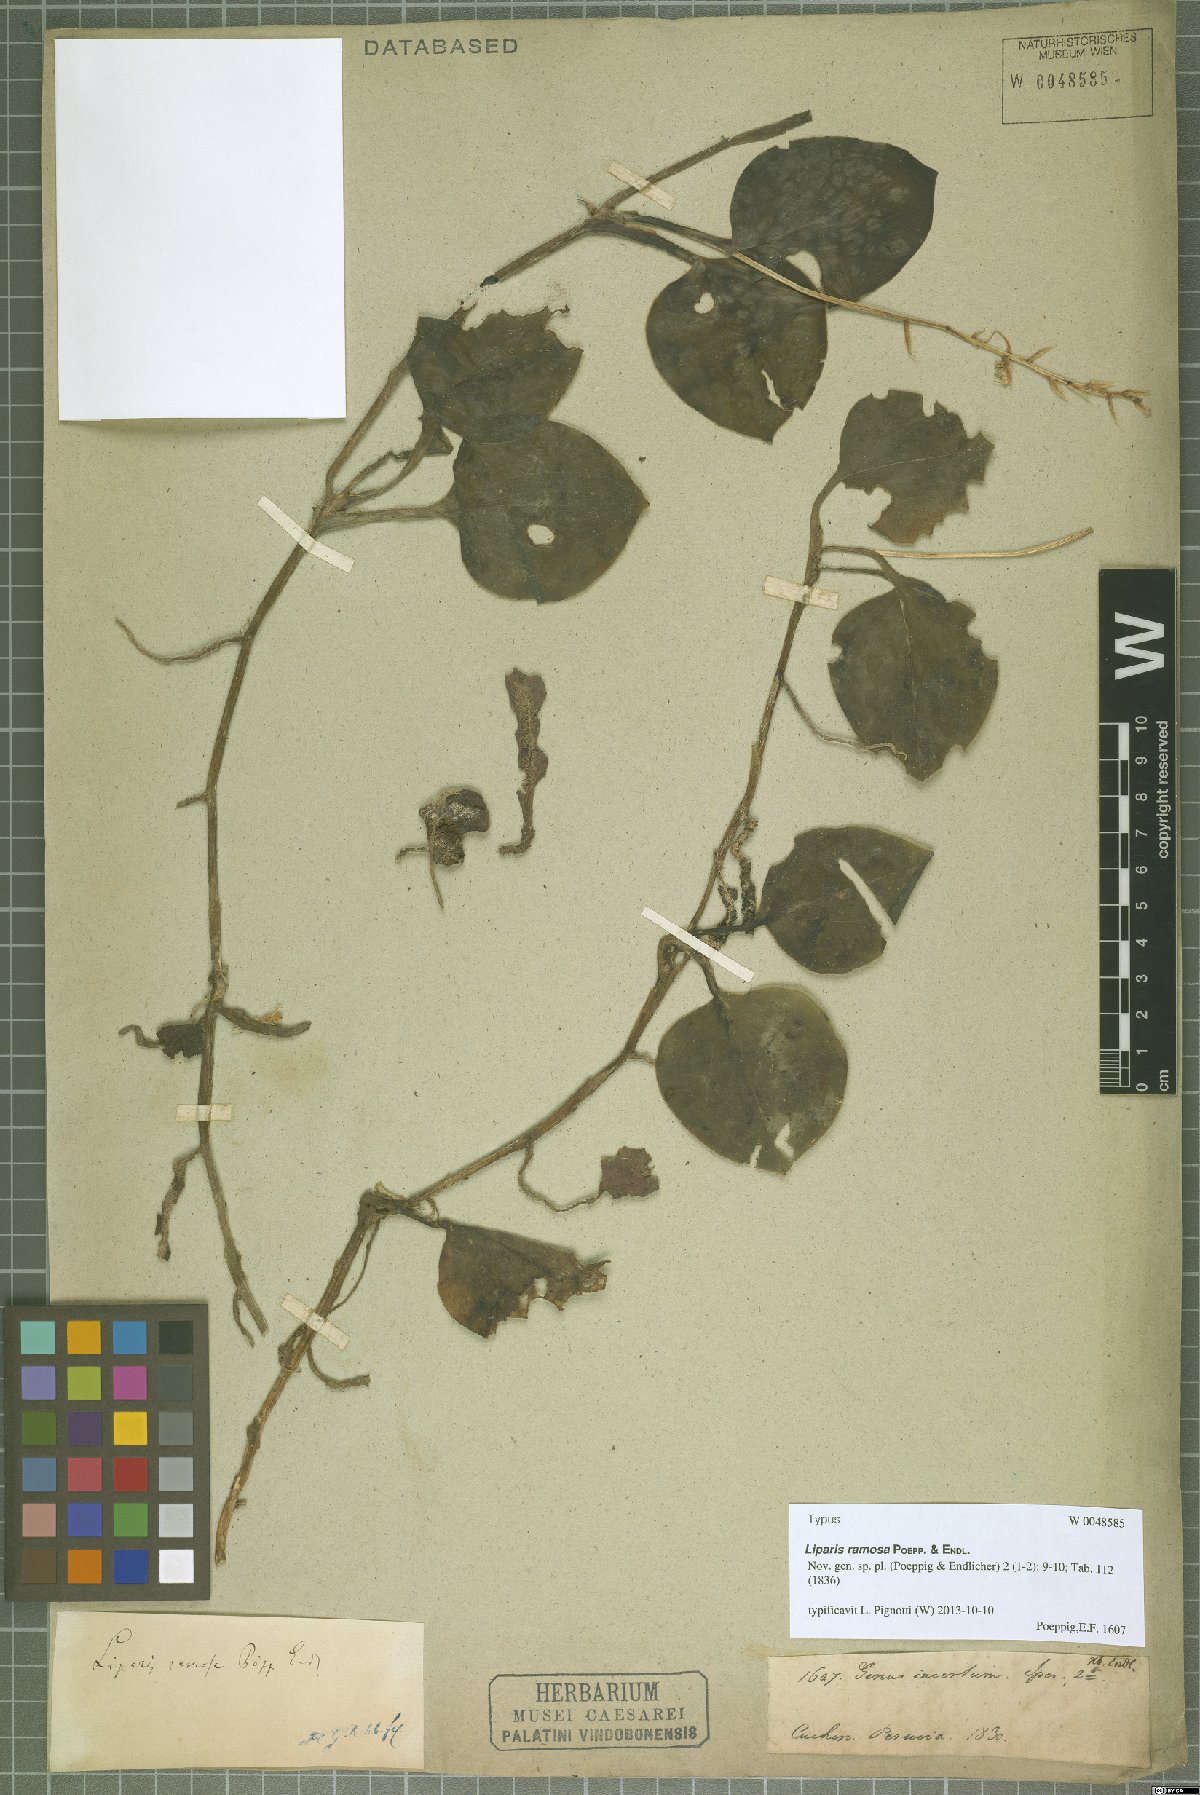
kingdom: Plantae
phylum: Tracheophyta
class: Liliopsida
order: Asparagales
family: Orchidaceae
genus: Liparis
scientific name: Liparis ramosa
